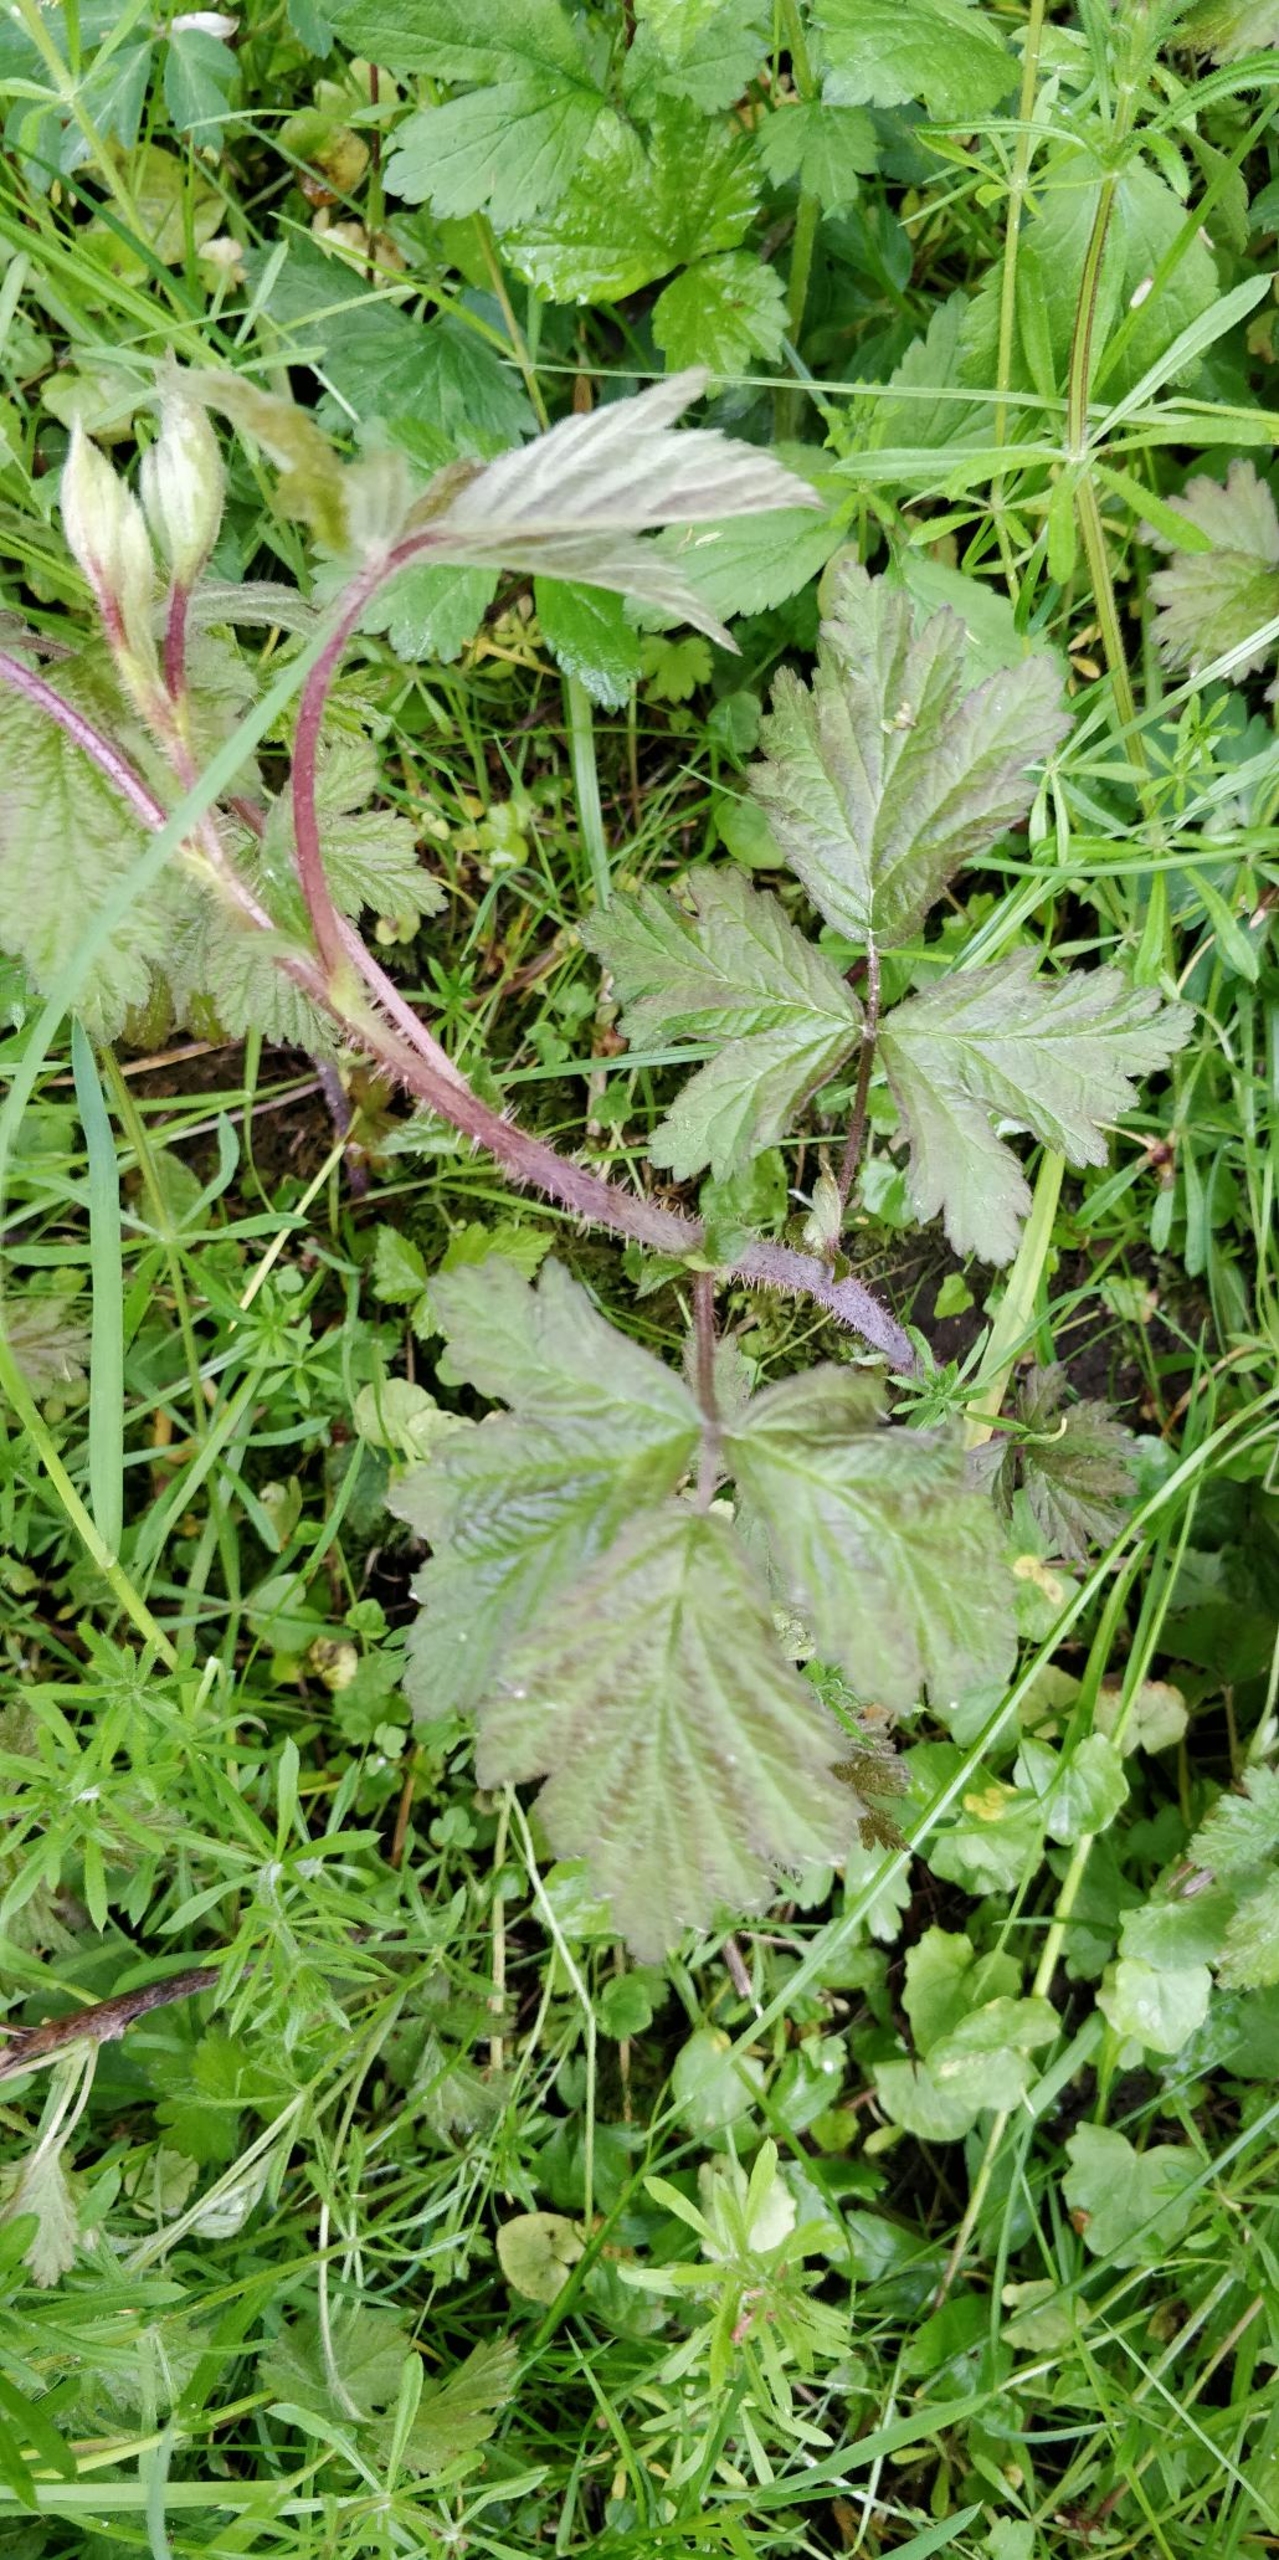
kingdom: Plantae
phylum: Tracheophyta
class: Magnoliopsida
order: Rosales
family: Rosaceae
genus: Rubus
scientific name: Rubus caesius
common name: Korbær
